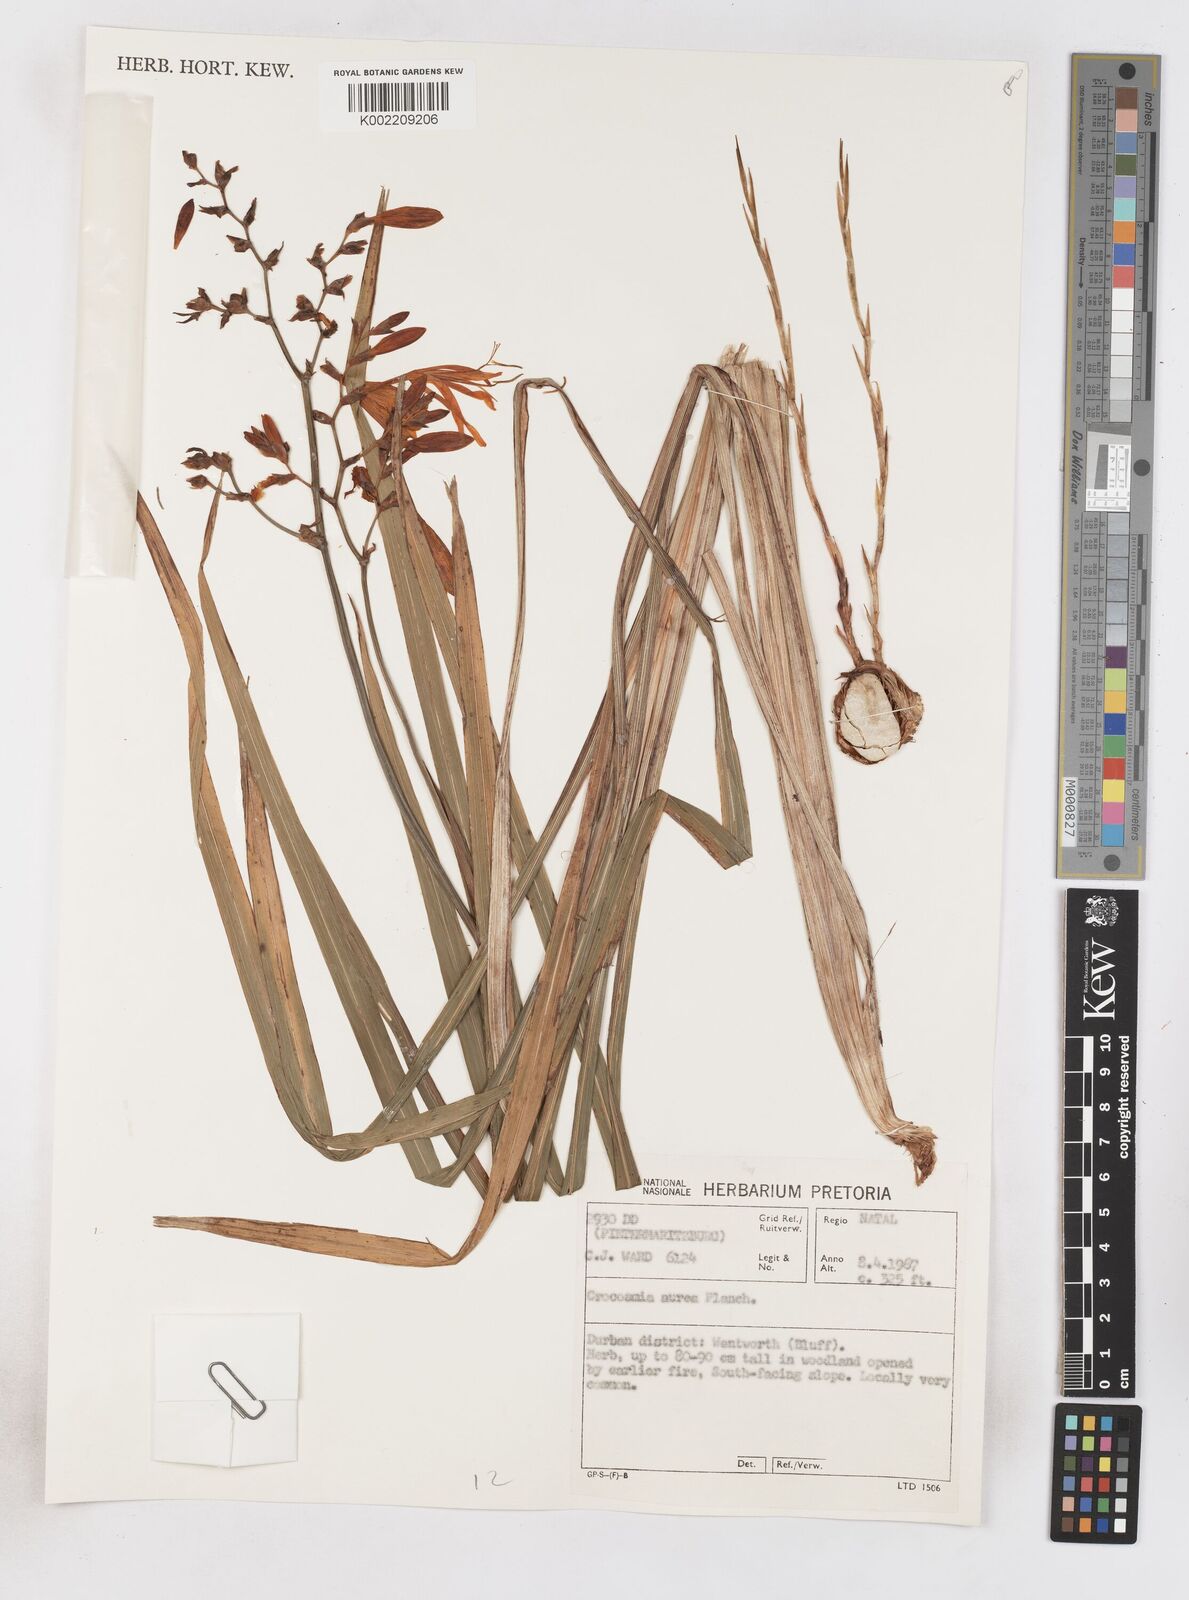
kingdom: Plantae
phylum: Tracheophyta
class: Liliopsida
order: Asparagales
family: Iridaceae
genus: Crocosmia
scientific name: Crocosmia aurea
